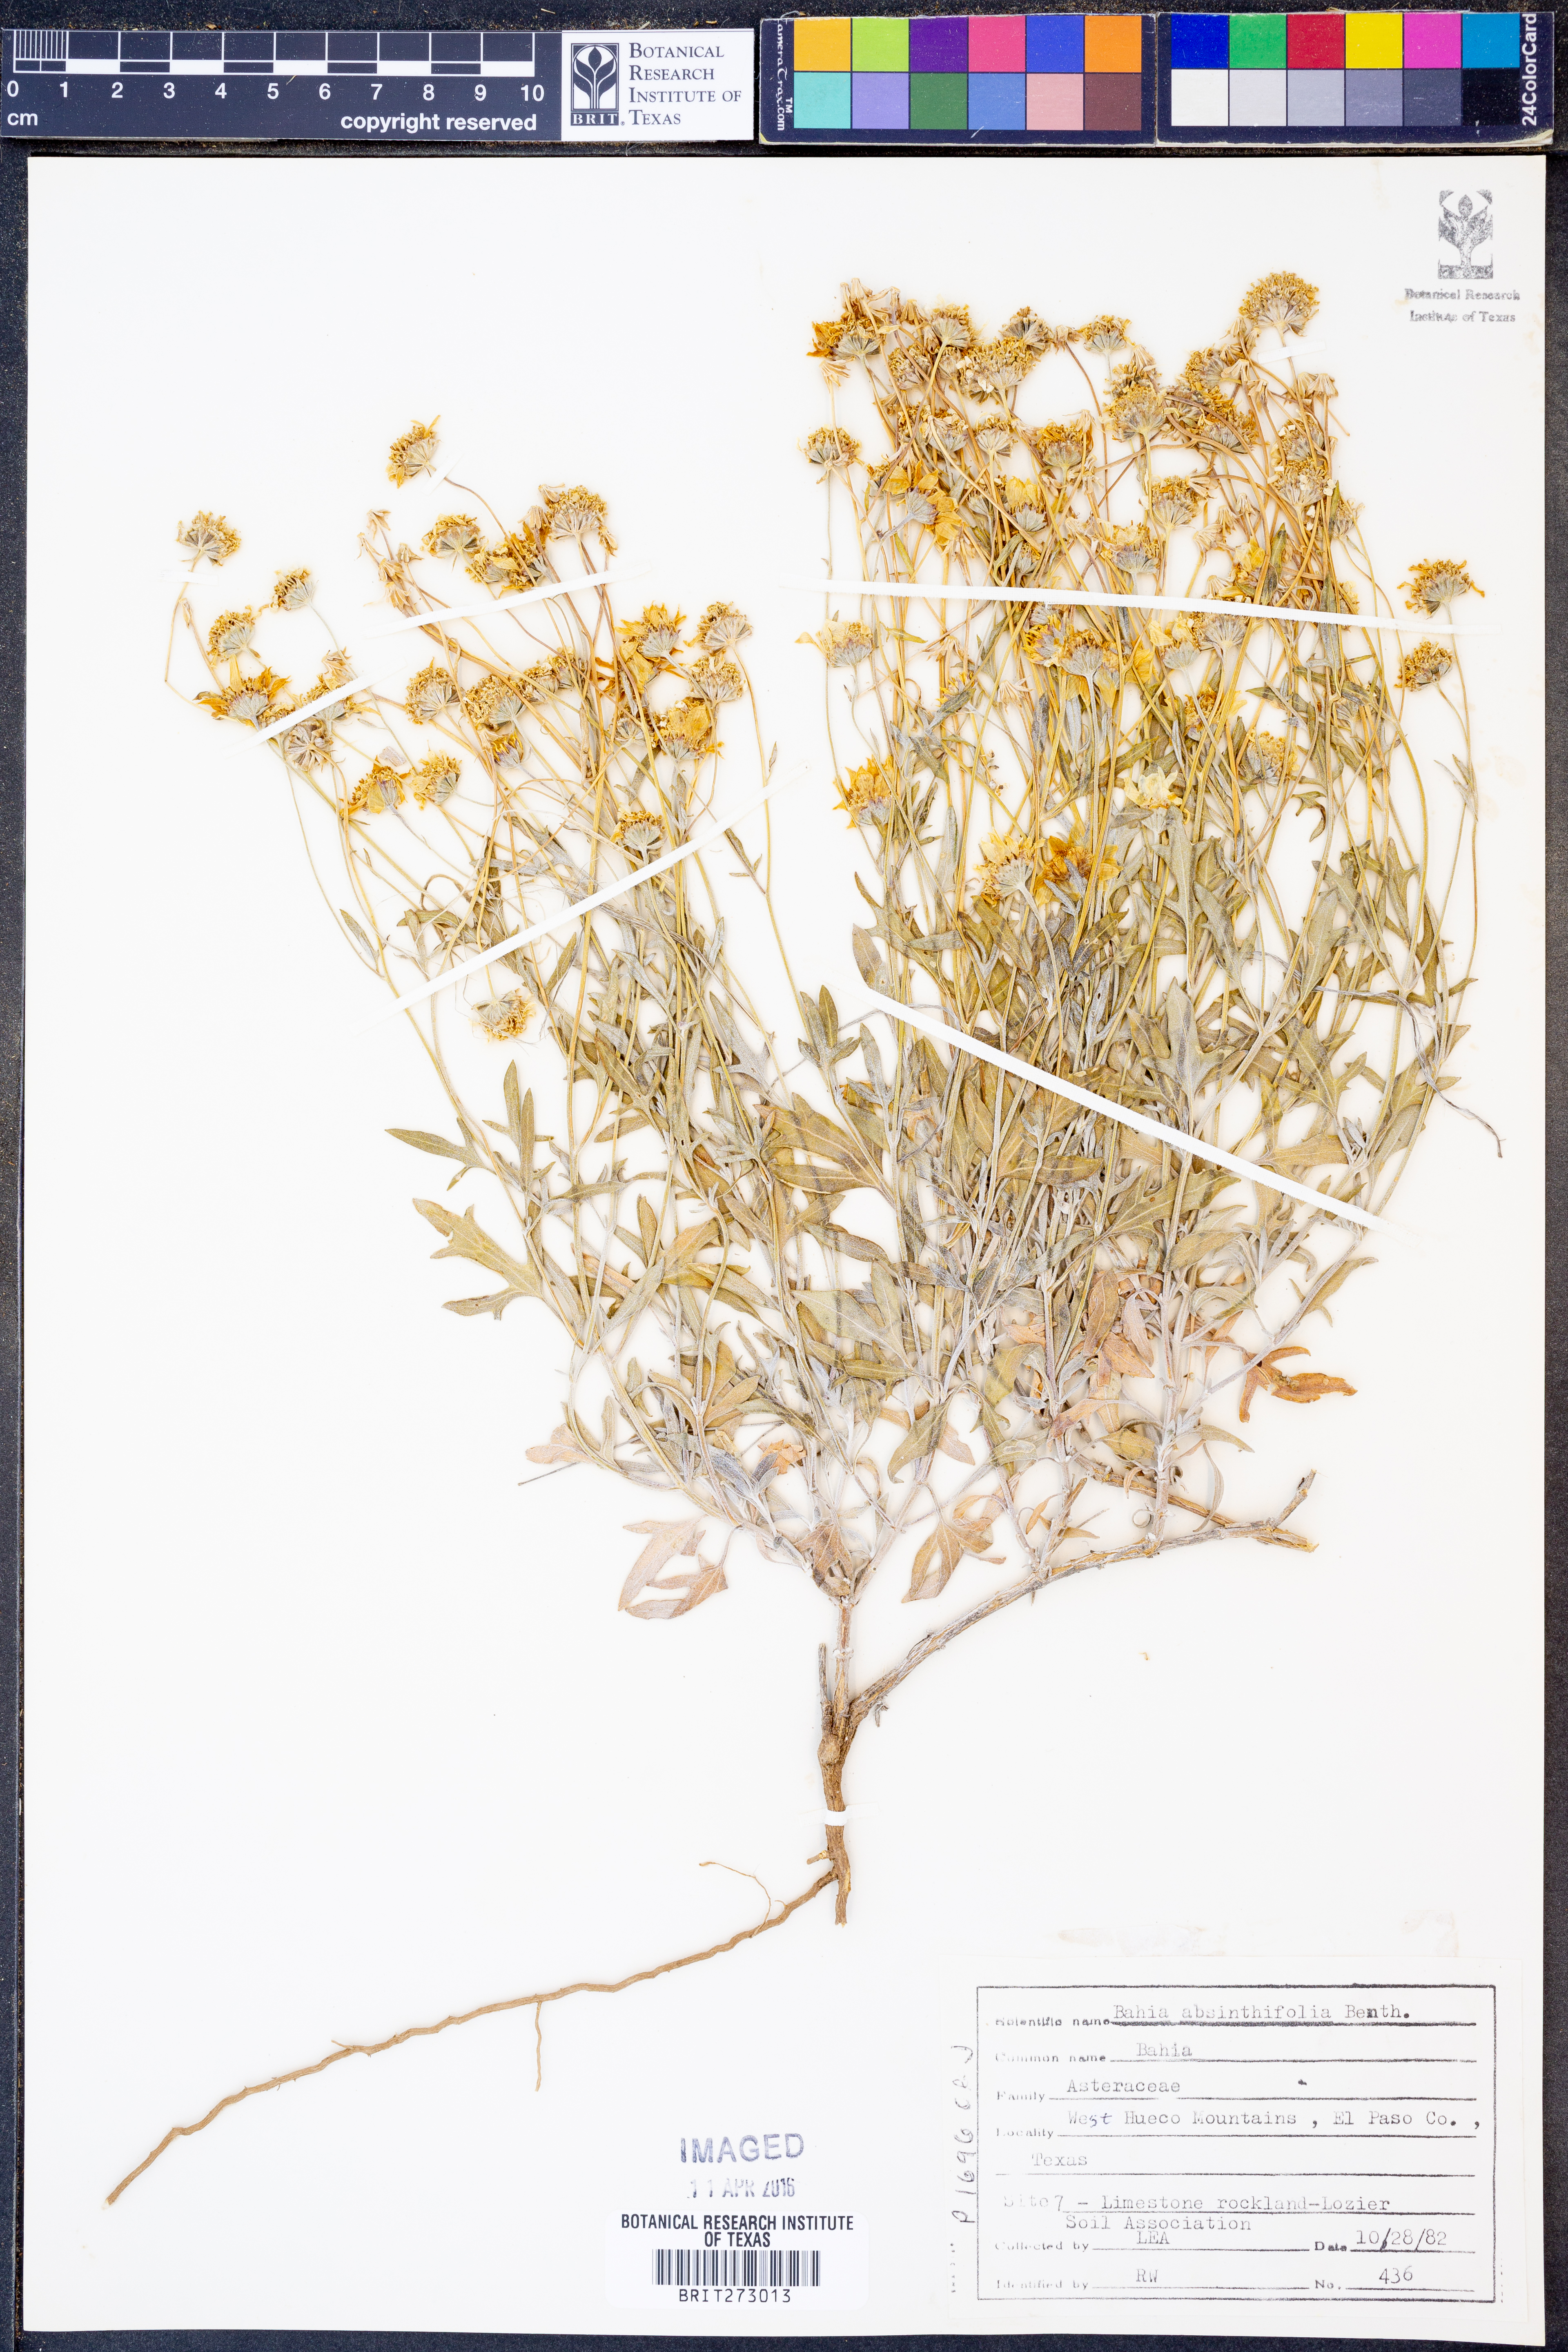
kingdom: Plantae
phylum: Tracheophyta
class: Magnoliopsida
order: Asterales
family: Asteraceae
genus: Picradeniopsis
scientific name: Picradeniopsis absinthifolia
